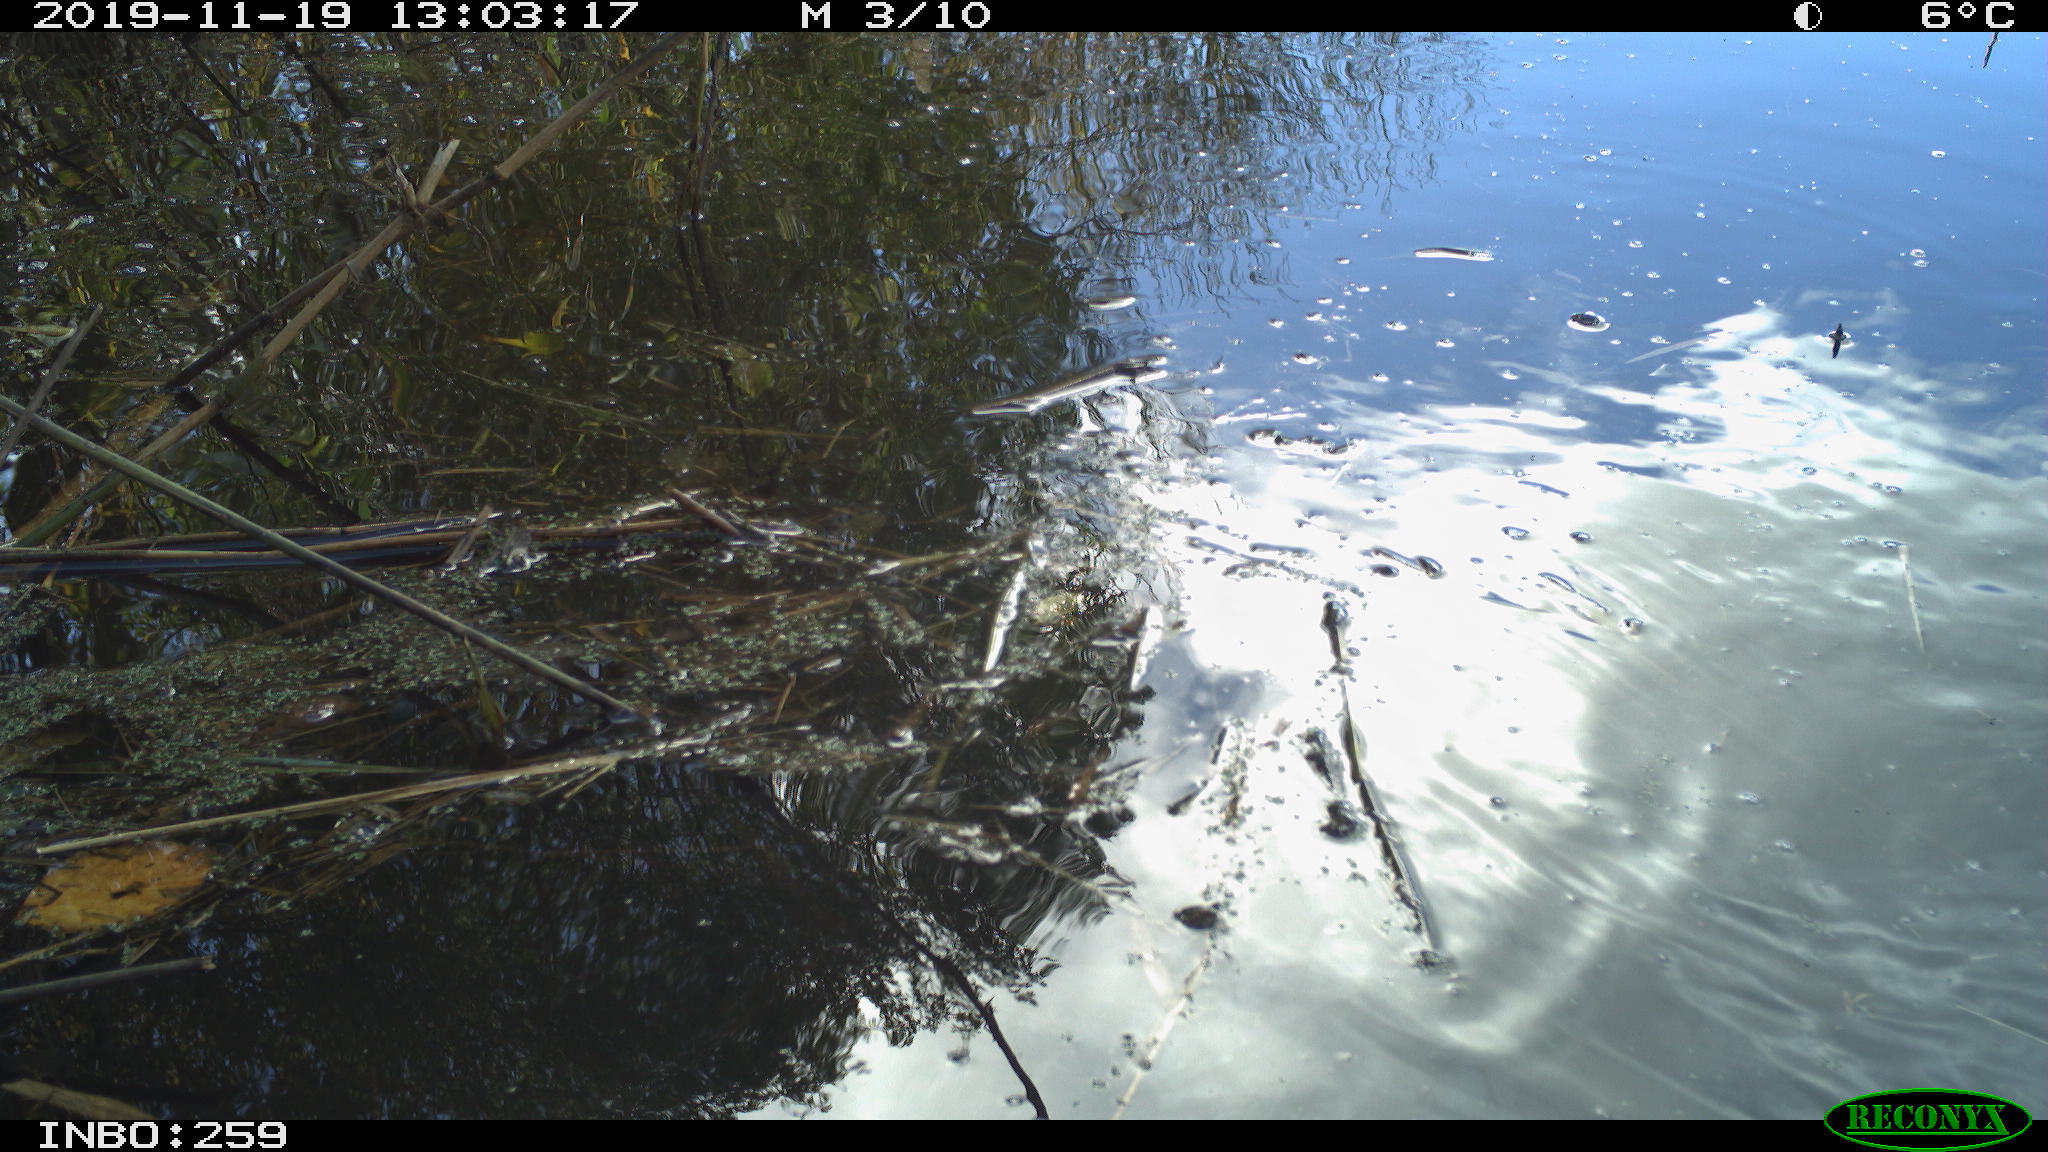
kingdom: Animalia
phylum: Chordata
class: Aves
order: Gruiformes
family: Rallidae
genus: Gallinula
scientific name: Gallinula chloropus
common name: Common moorhen
